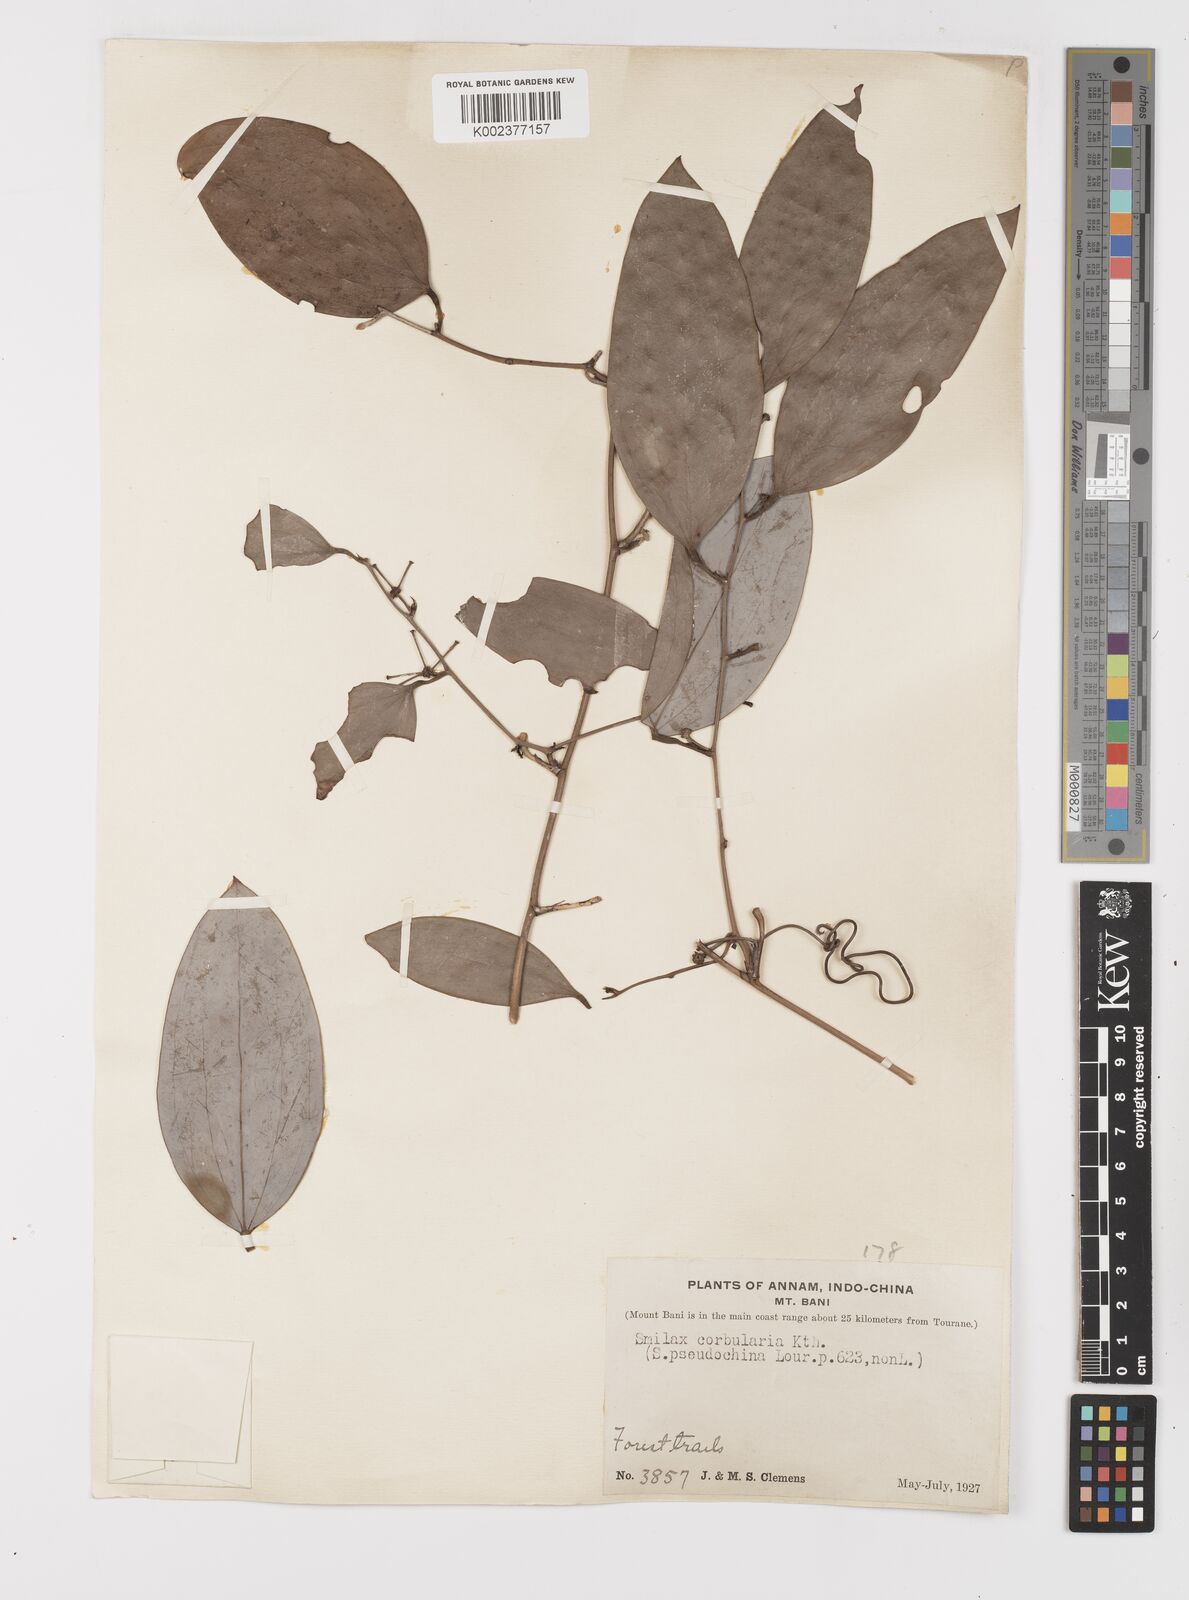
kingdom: Plantae
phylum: Tracheophyta
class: Liliopsida
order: Liliales
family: Smilacaceae
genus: Smilax
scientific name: Smilax corbularia
